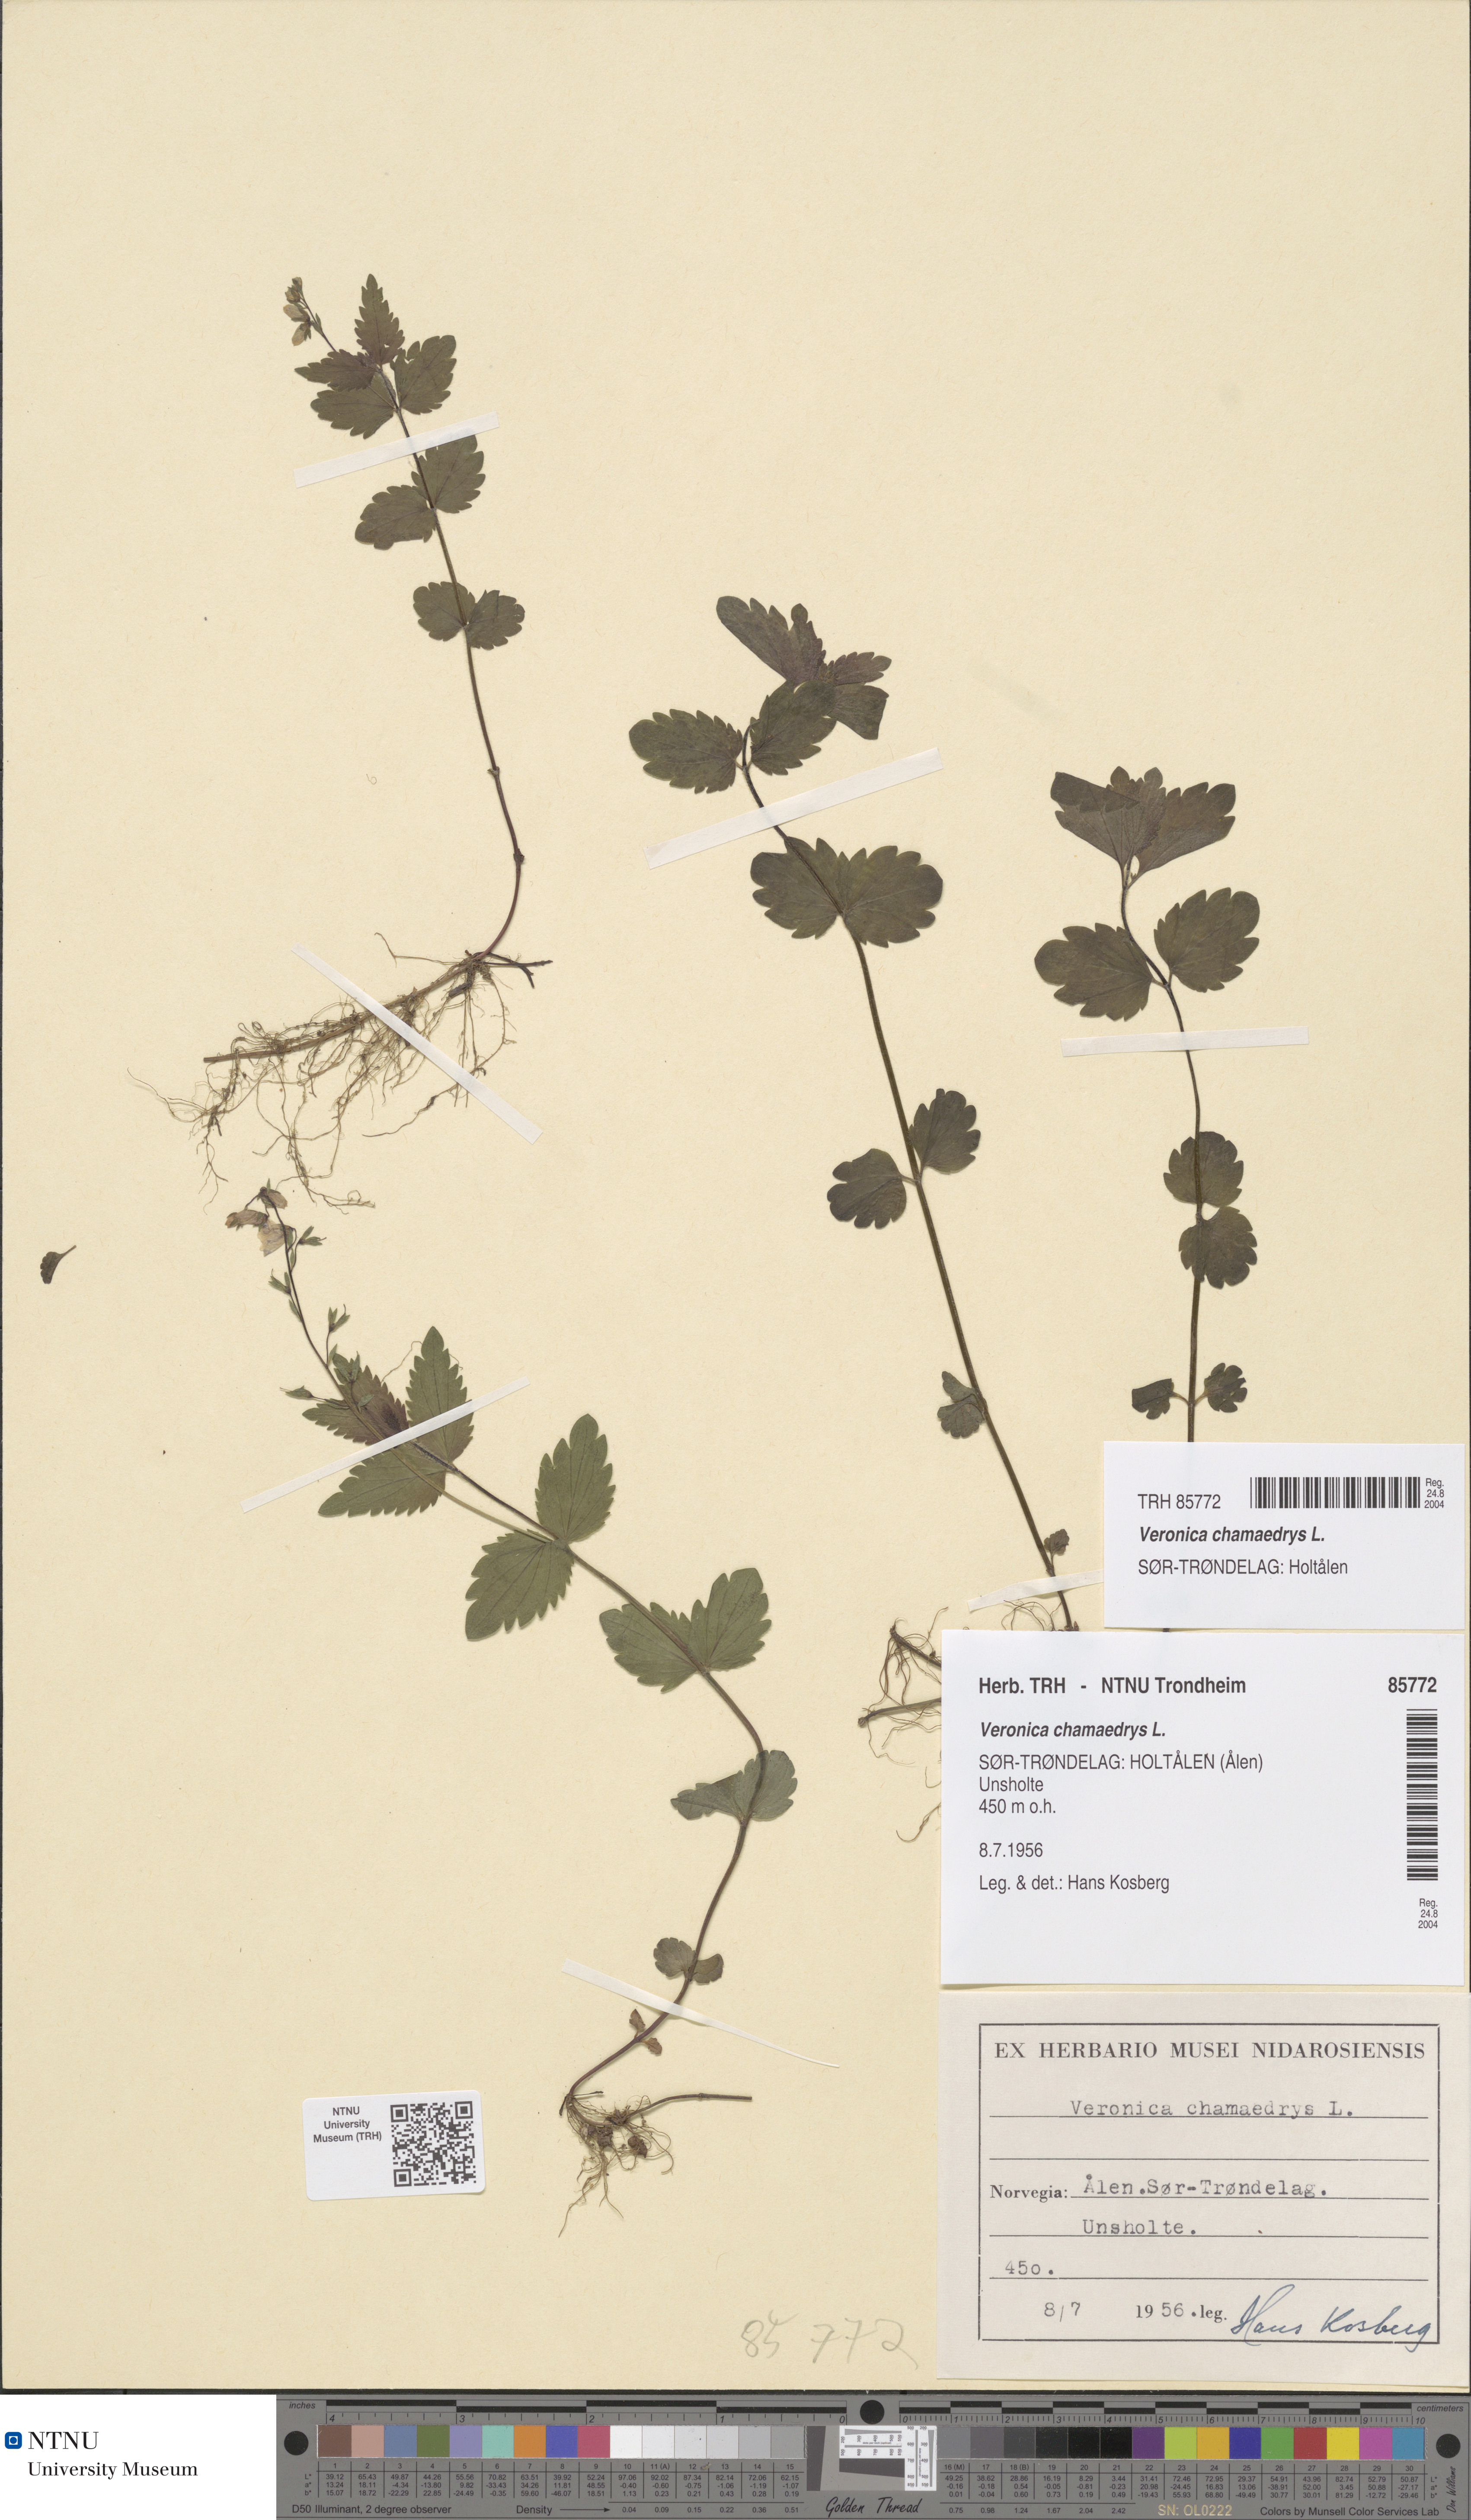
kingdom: Plantae
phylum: Tracheophyta
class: Magnoliopsida
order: Lamiales
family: Plantaginaceae
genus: Veronica
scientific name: Veronica chamaedrys
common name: Germander speedwell
